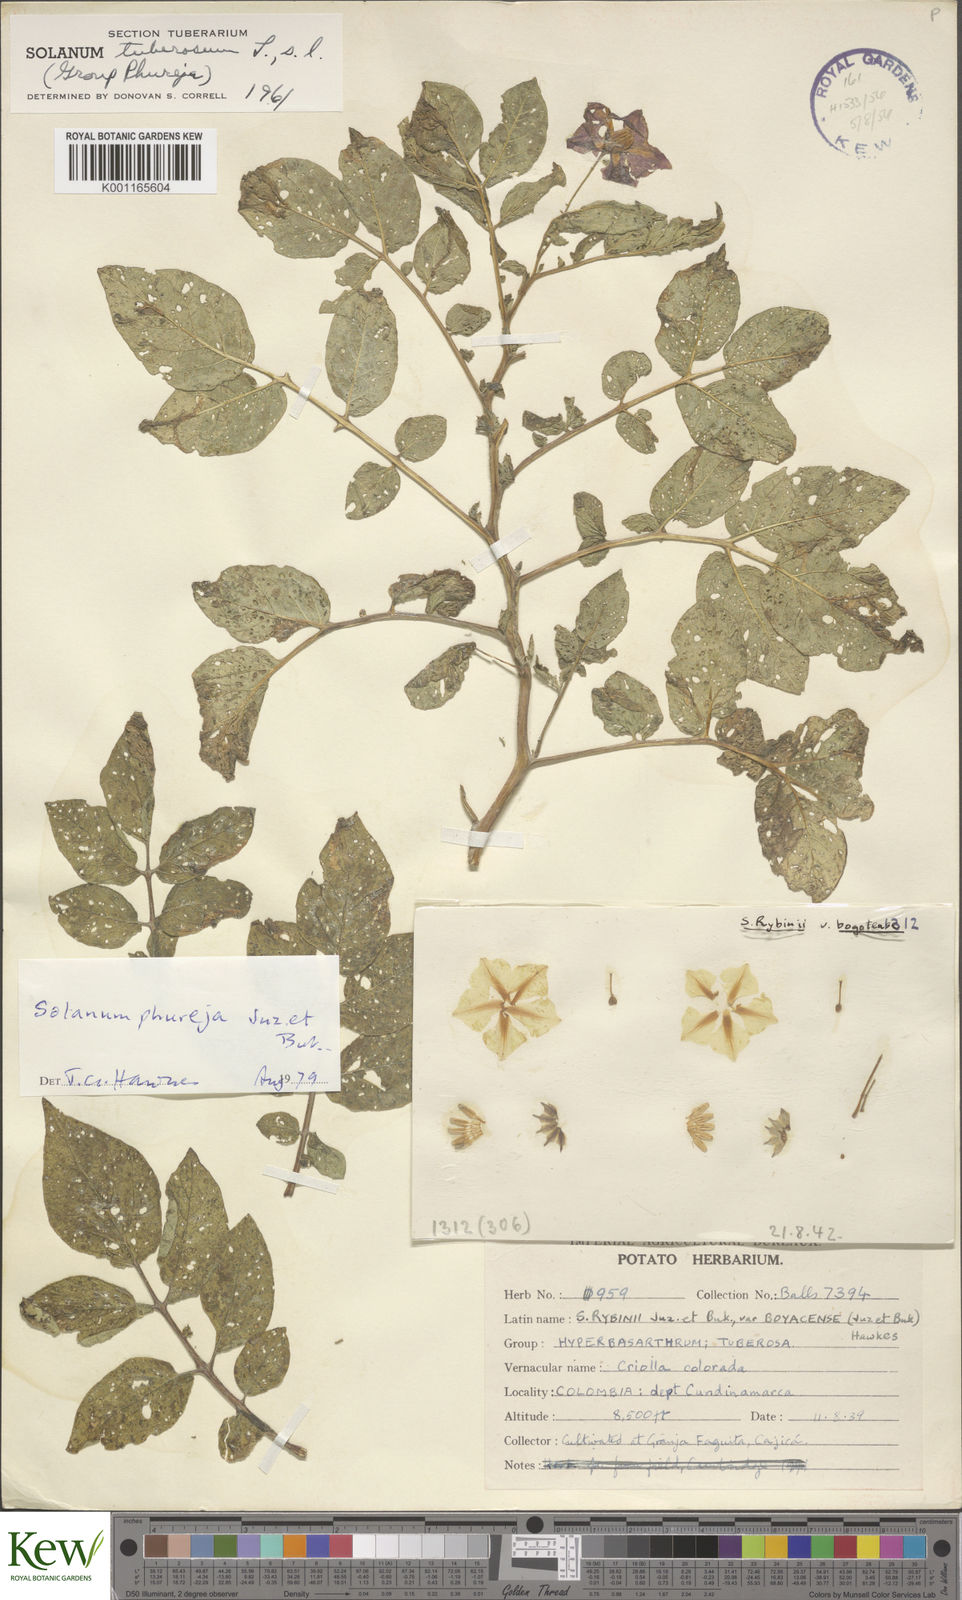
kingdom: Plantae
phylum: Tracheophyta
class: Magnoliopsida
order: Solanales
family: Solanaceae
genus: Solanum
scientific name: Solanum tuberosum
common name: Potato
